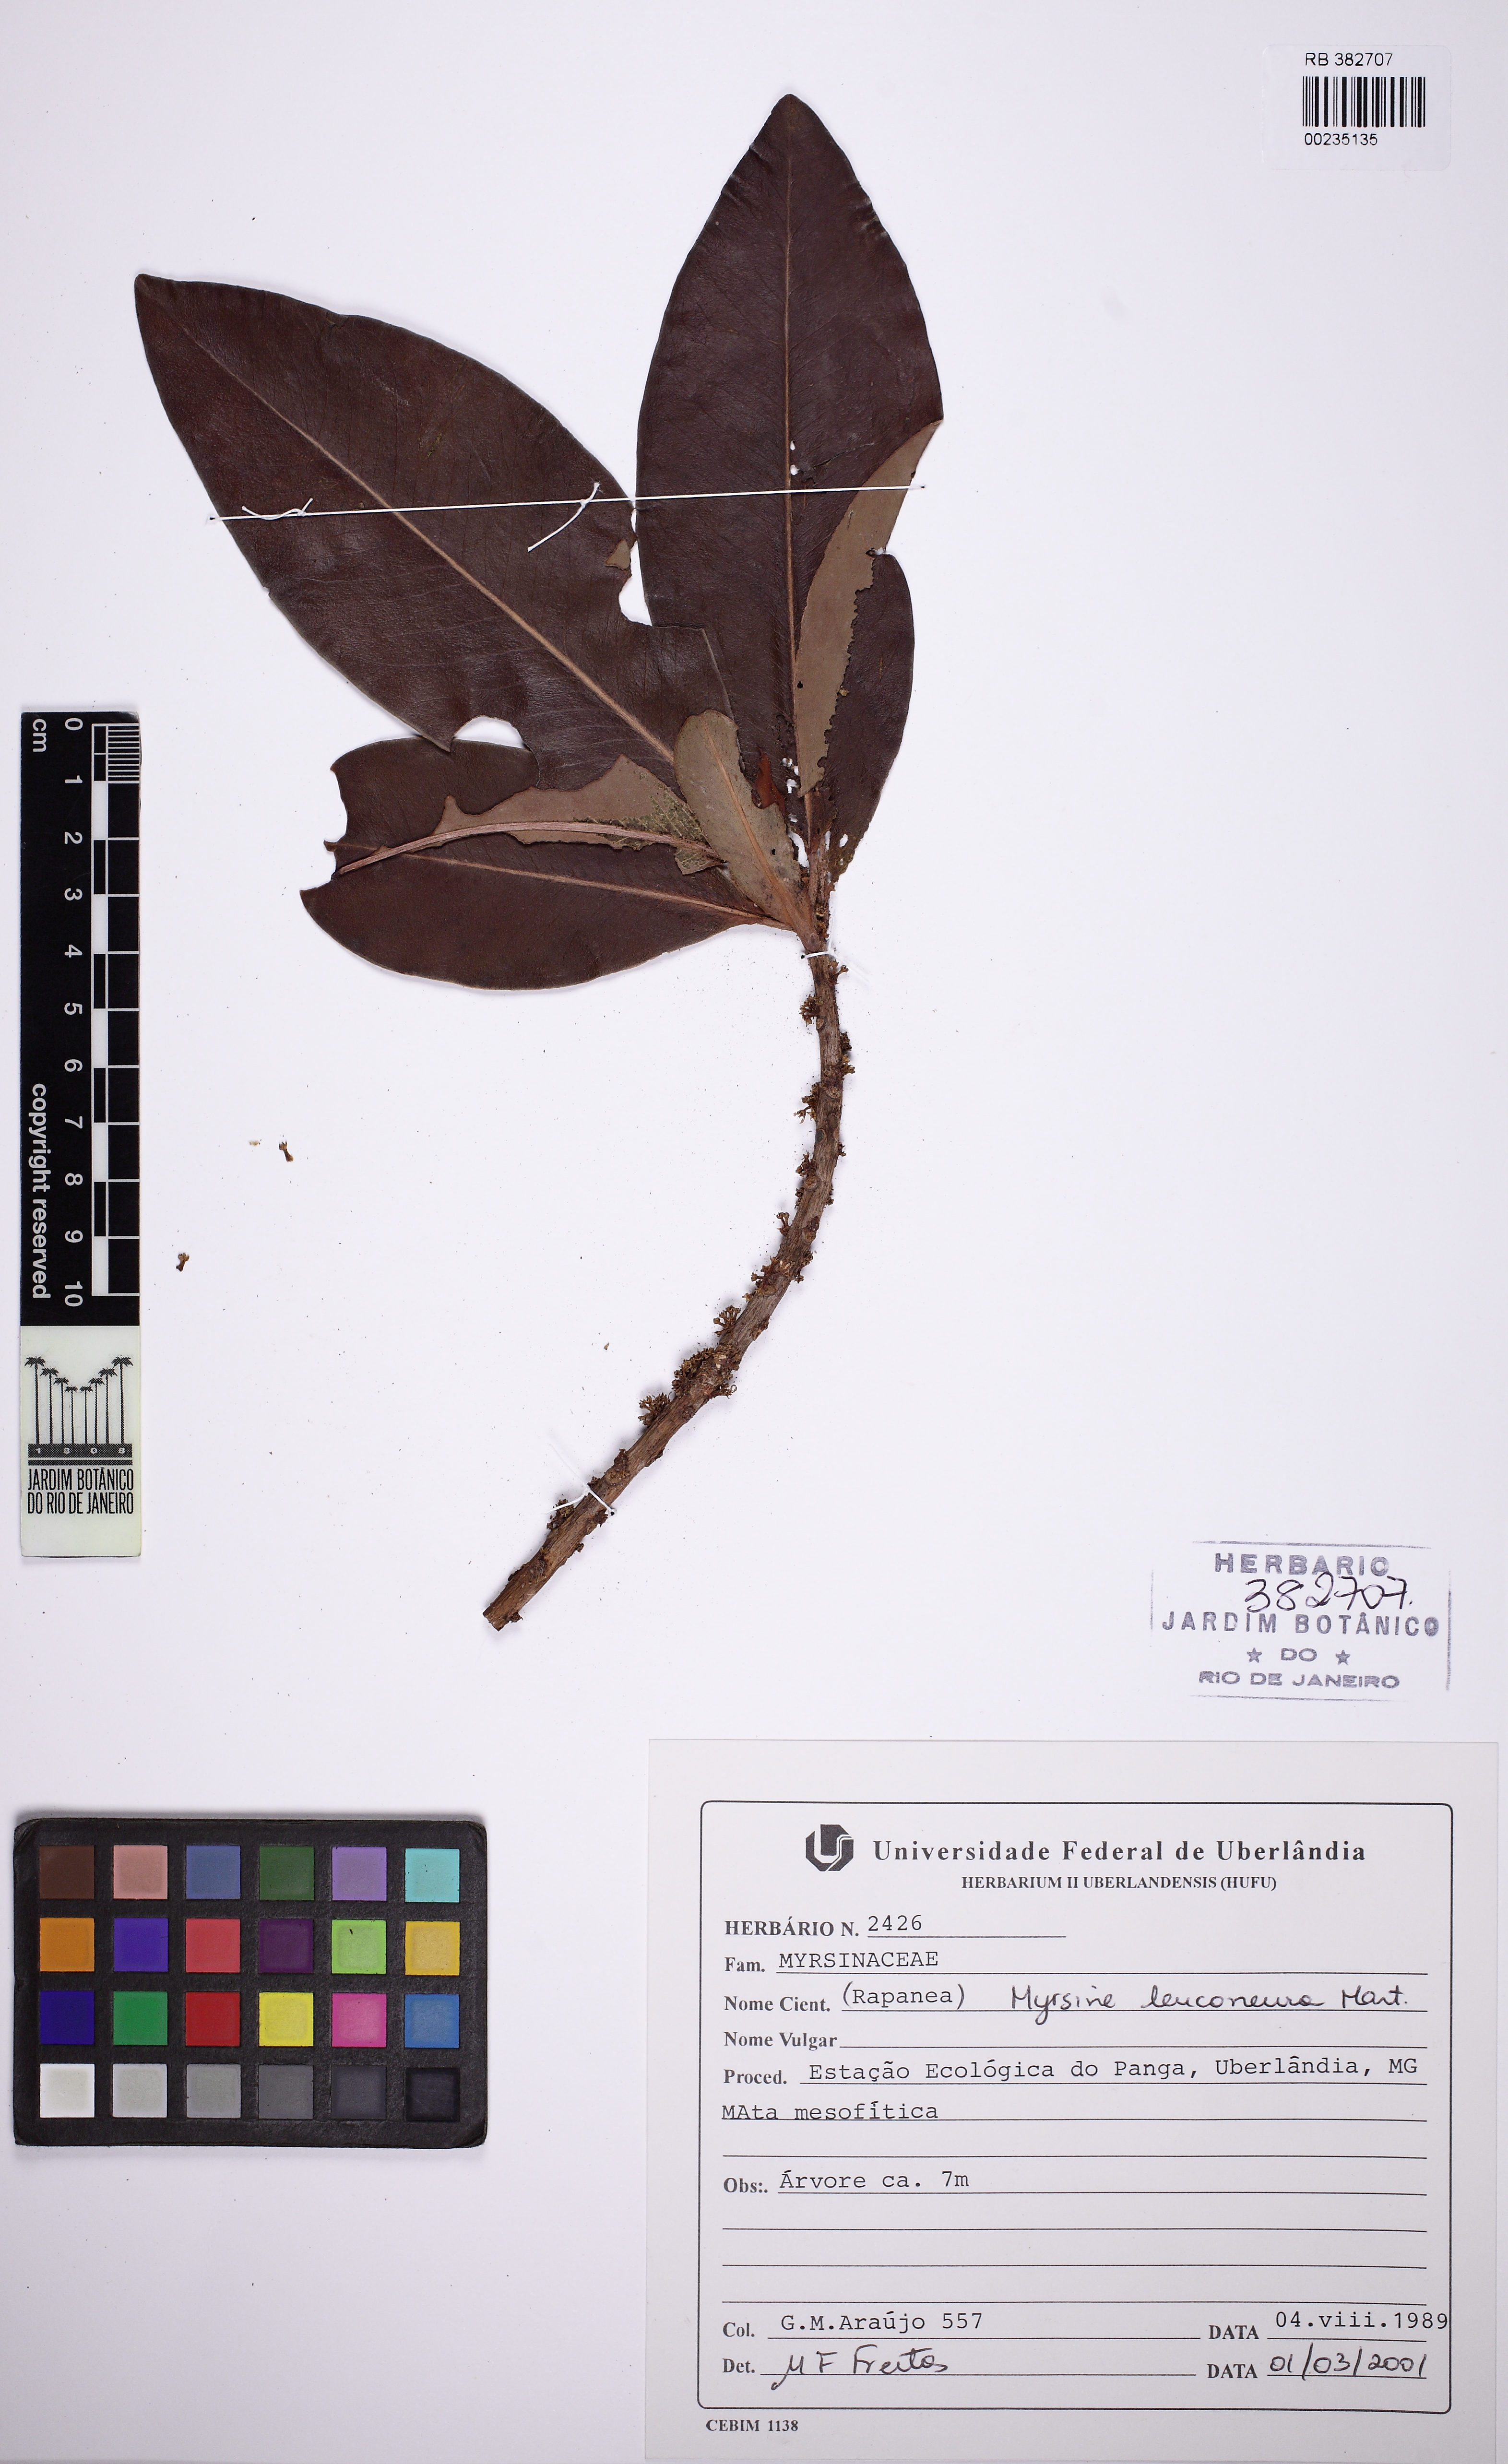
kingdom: Plantae
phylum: Tracheophyta
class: Magnoliopsida
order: Ericales
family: Primulaceae
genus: Myrsine
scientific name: Myrsine leuconeura
